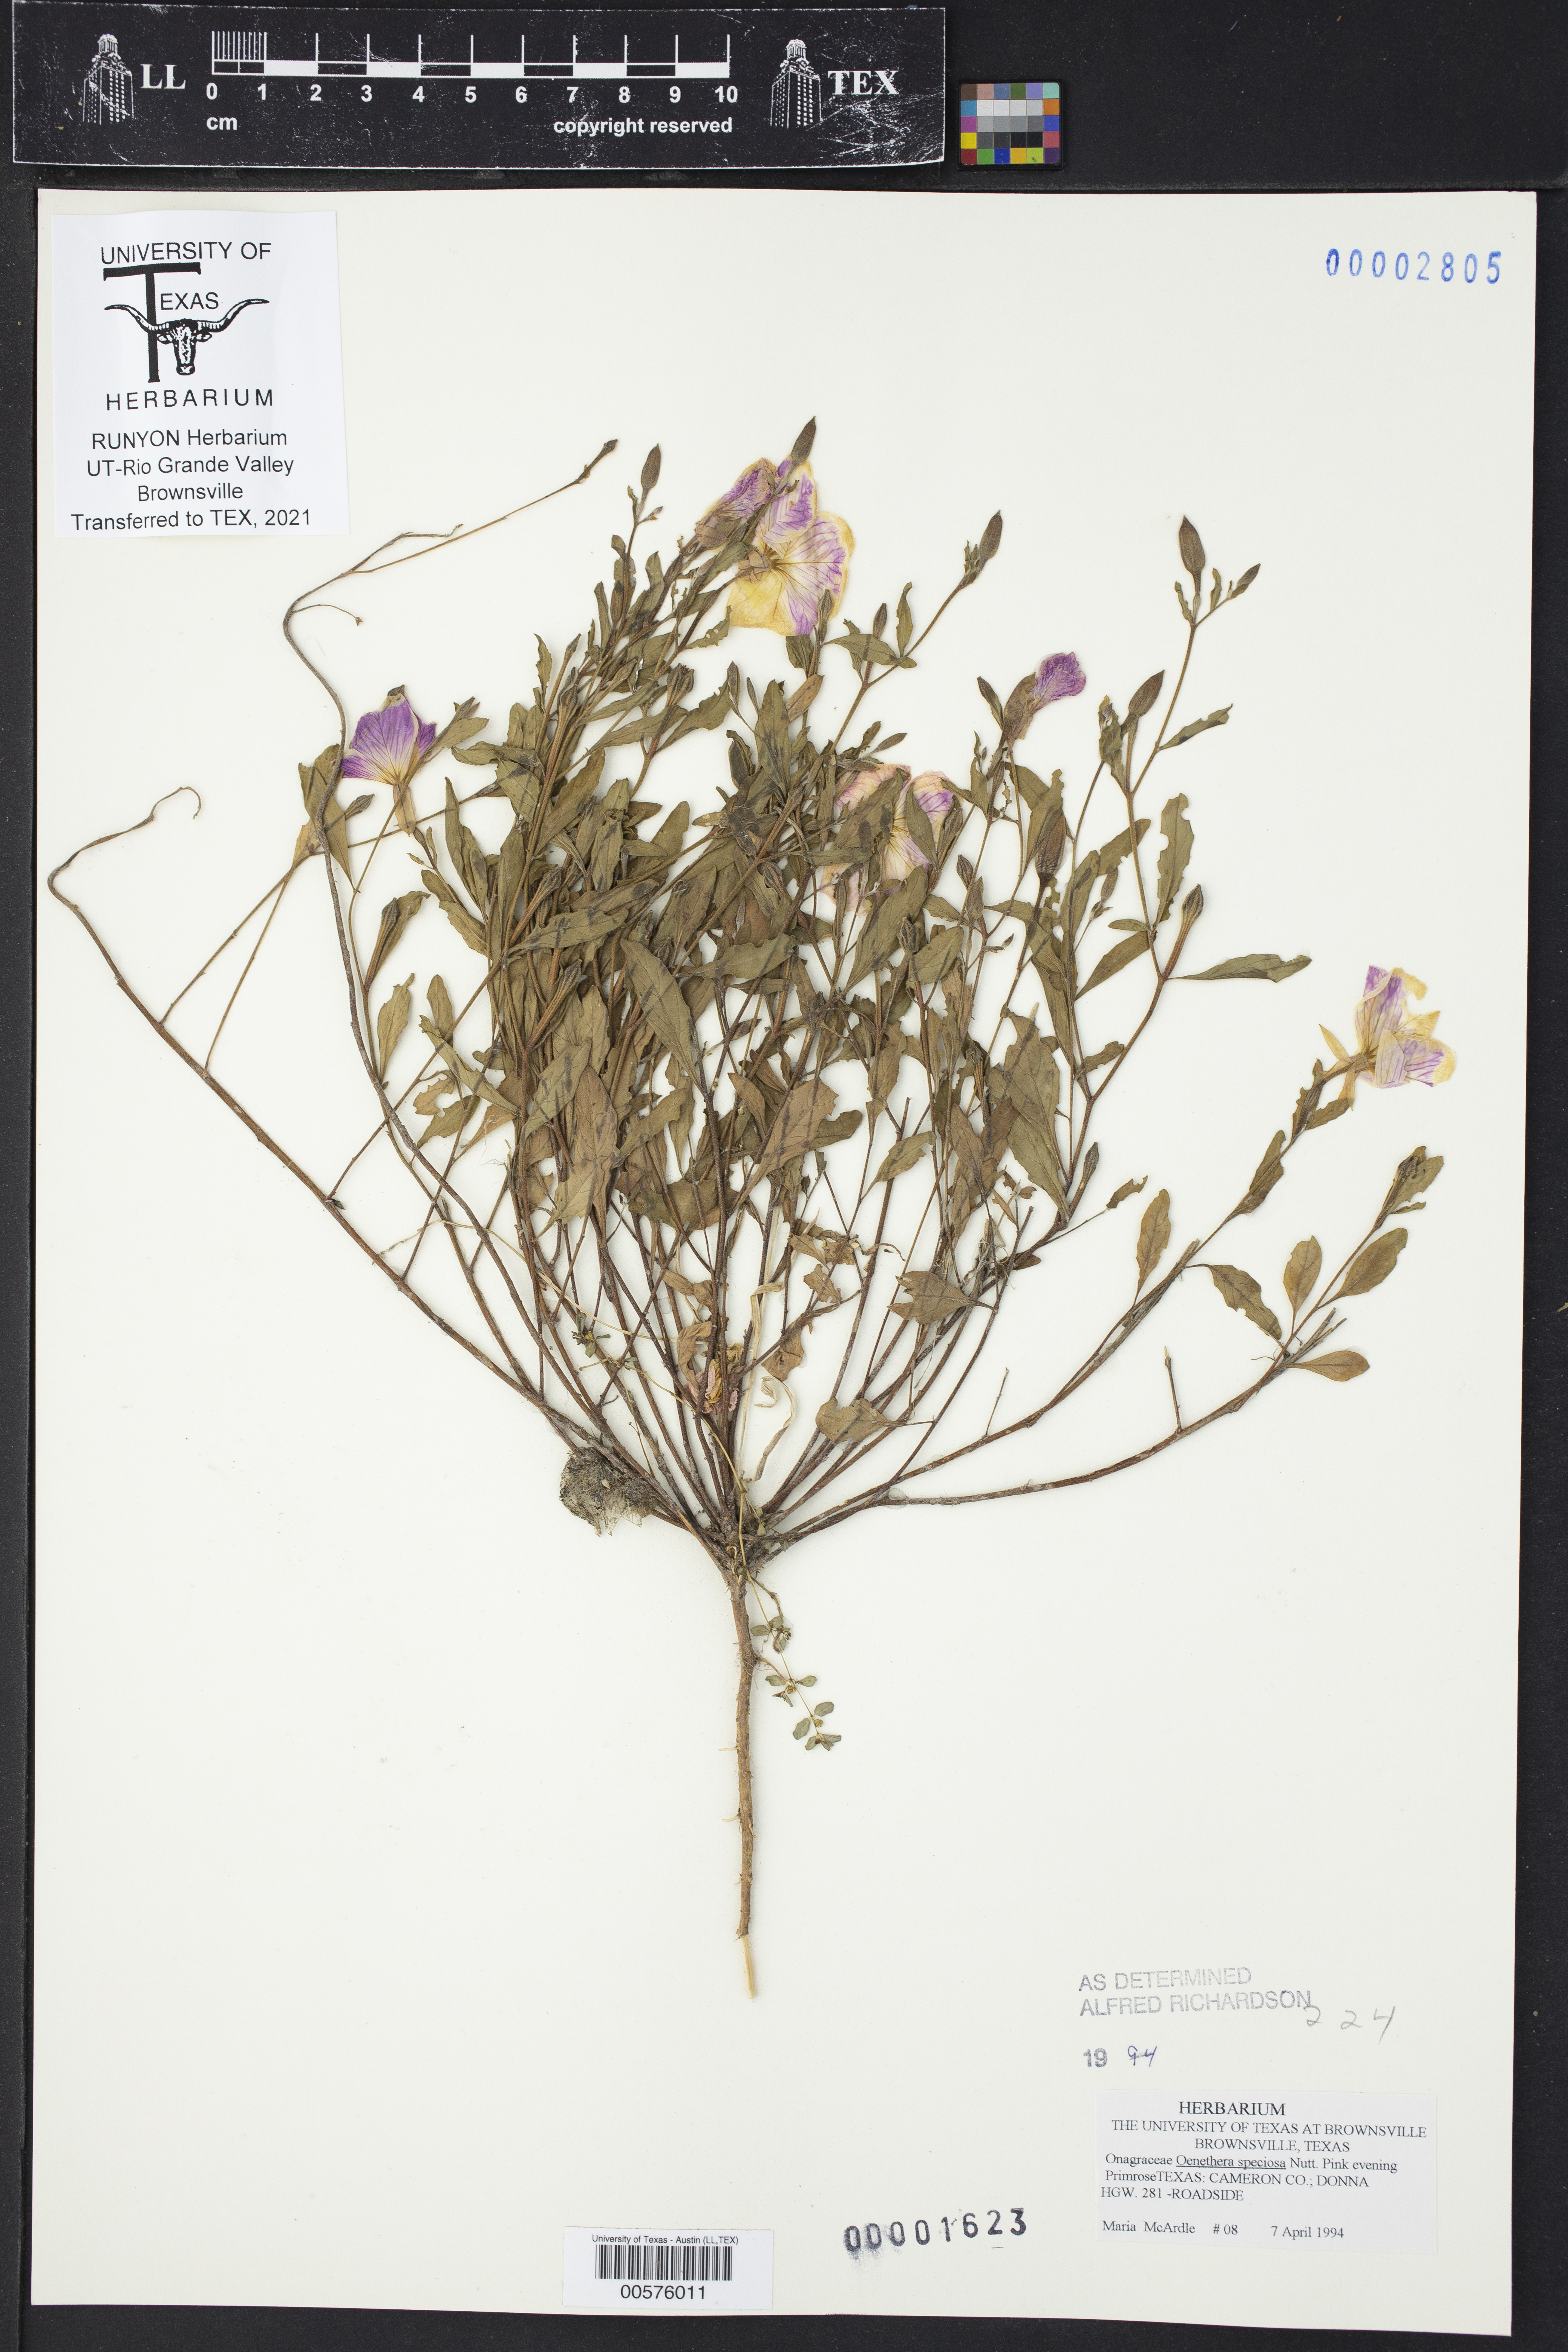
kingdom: Plantae
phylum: Tracheophyta
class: Magnoliopsida
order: Myrtales
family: Onagraceae
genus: Oenothera
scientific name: Oenothera speciosa
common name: White evening-primrose
